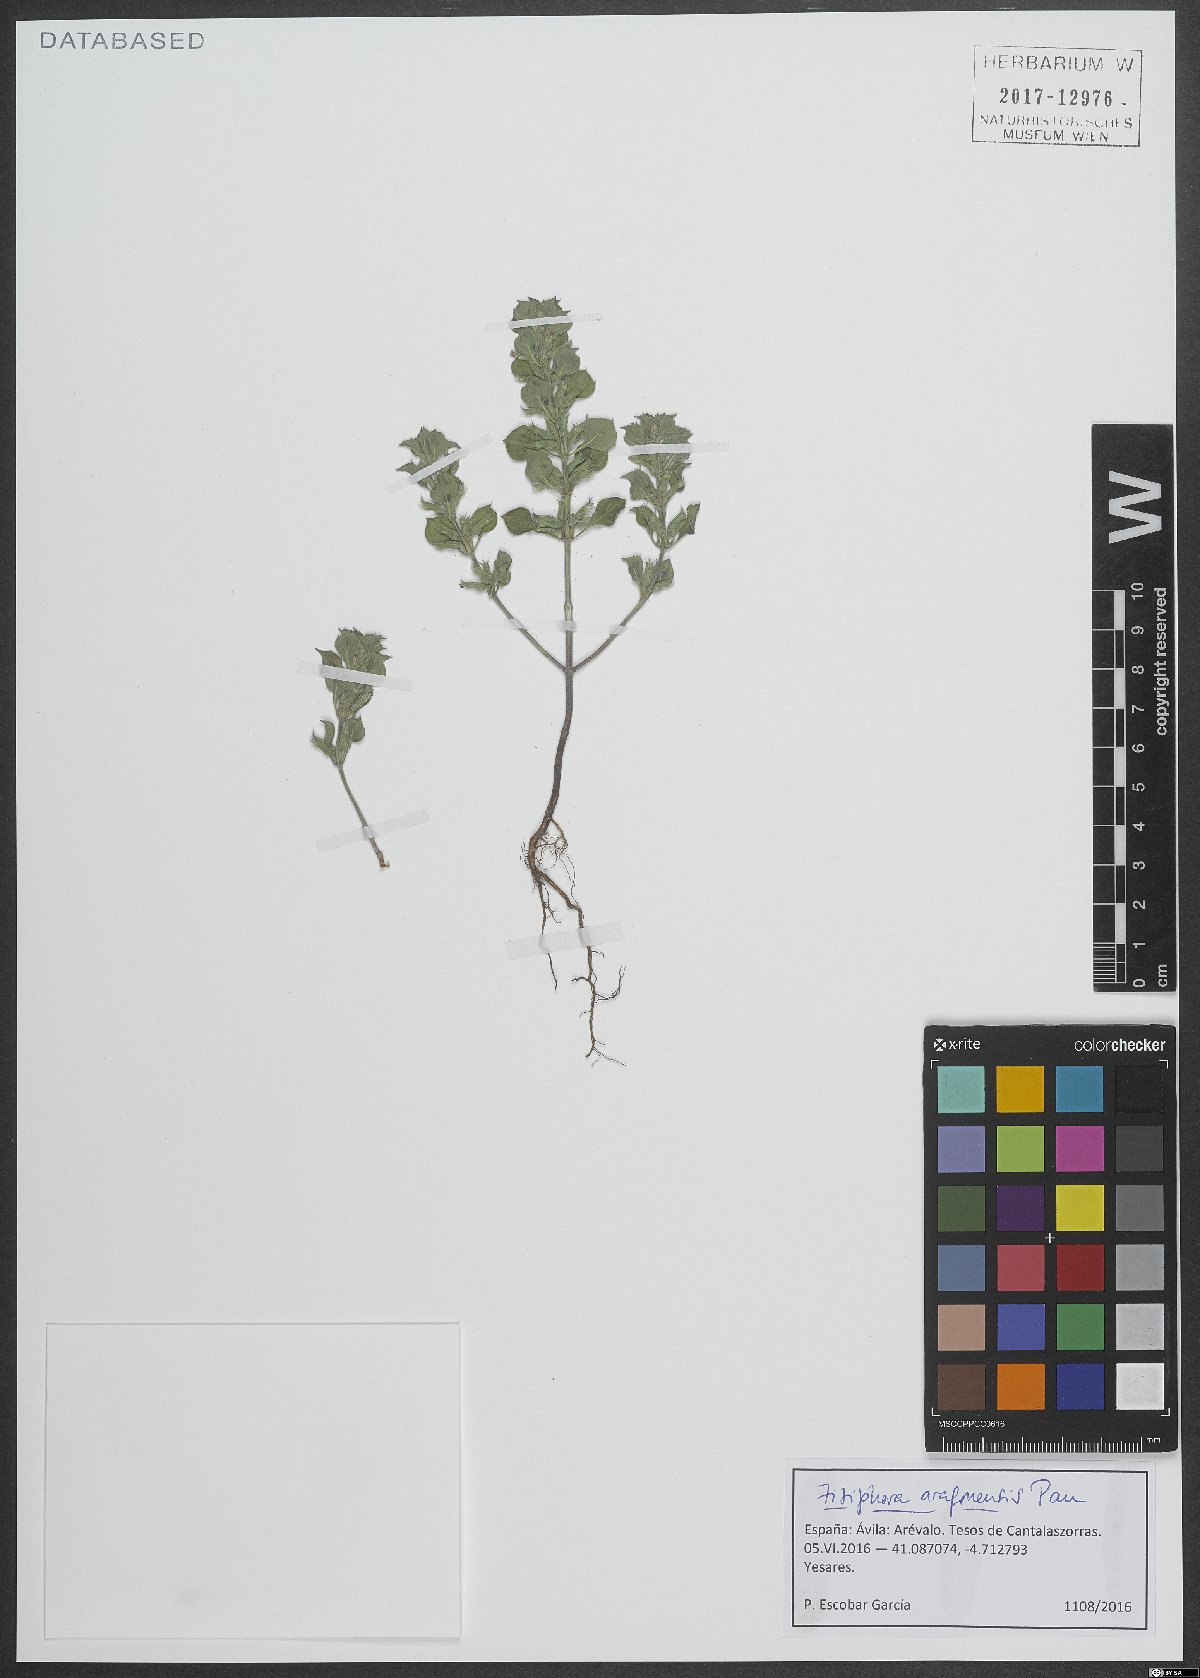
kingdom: Plantae
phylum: Tracheophyta
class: Magnoliopsida
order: Lamiales
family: Lamiaceae
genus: Ziziphora
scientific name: Ziziphora aragonensis
